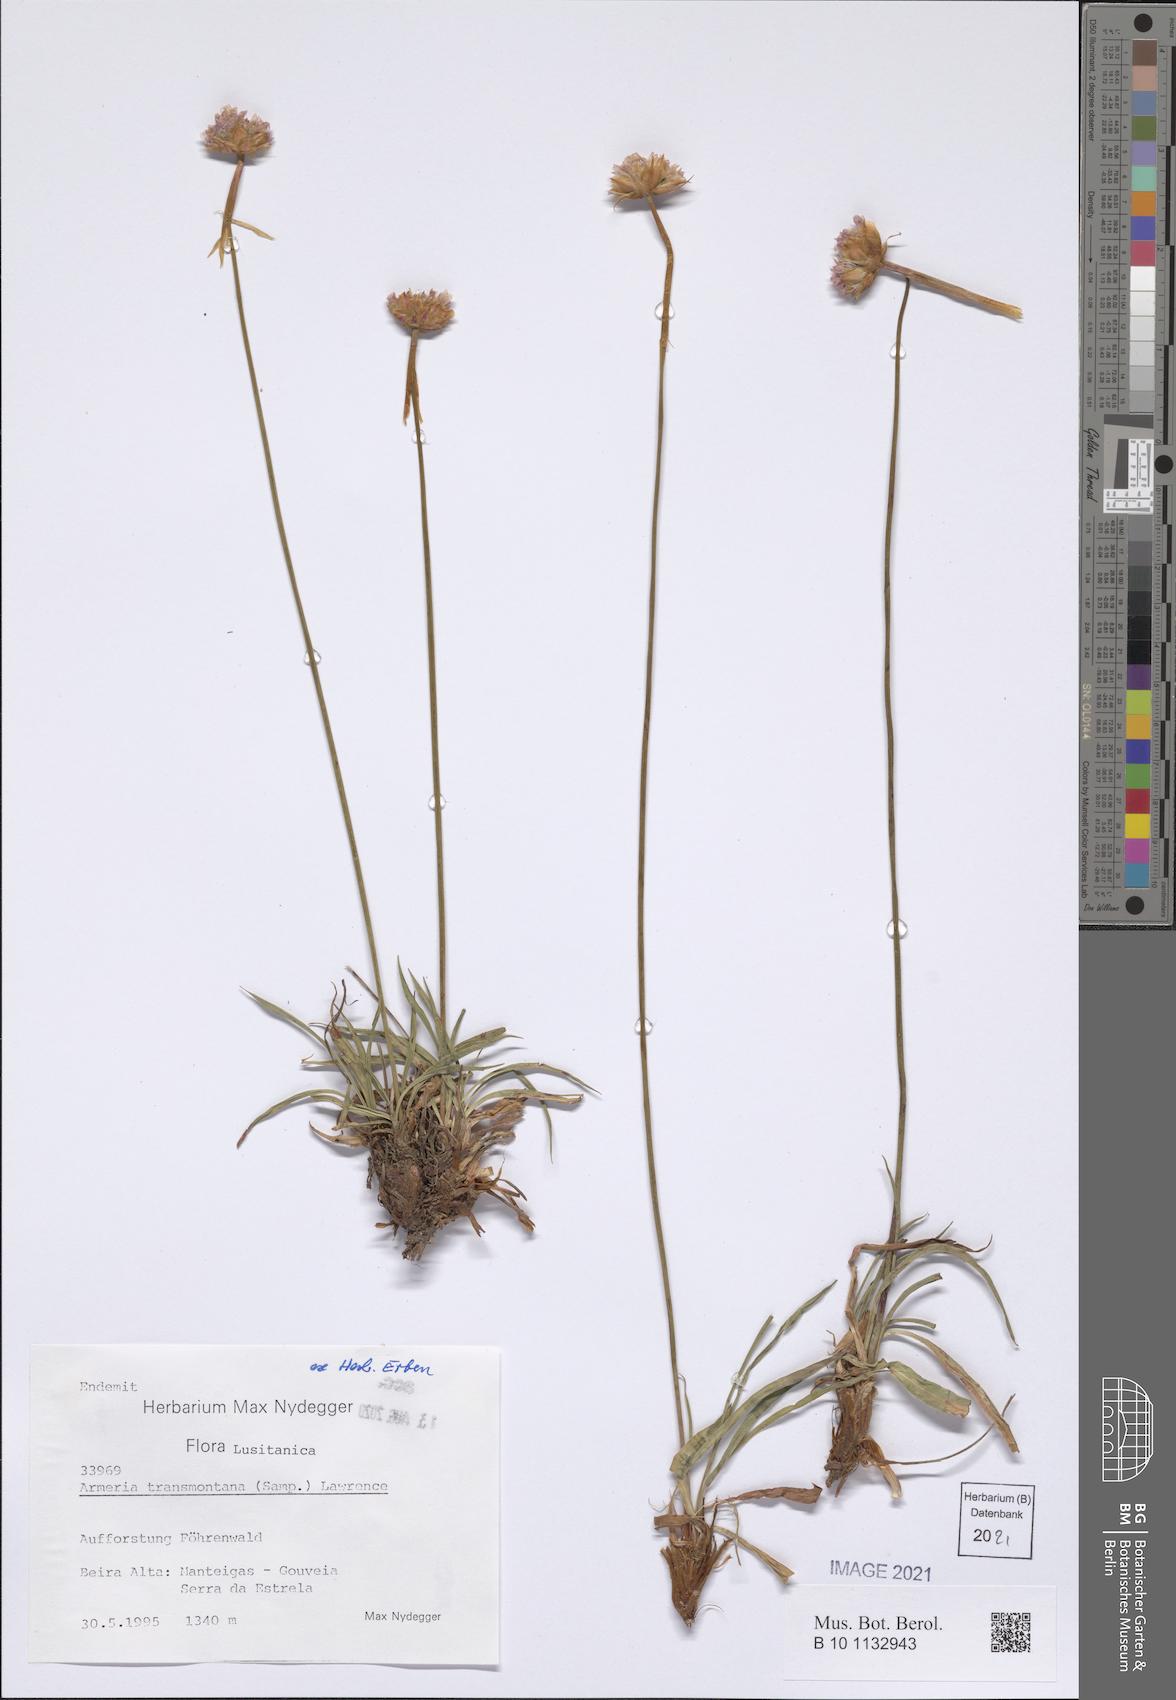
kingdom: Plantae
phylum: Tracheophyta
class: Magnoliopsida
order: Caryophyllales
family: Plumbaginaceae
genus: Armeria
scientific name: Armeria transmontana
